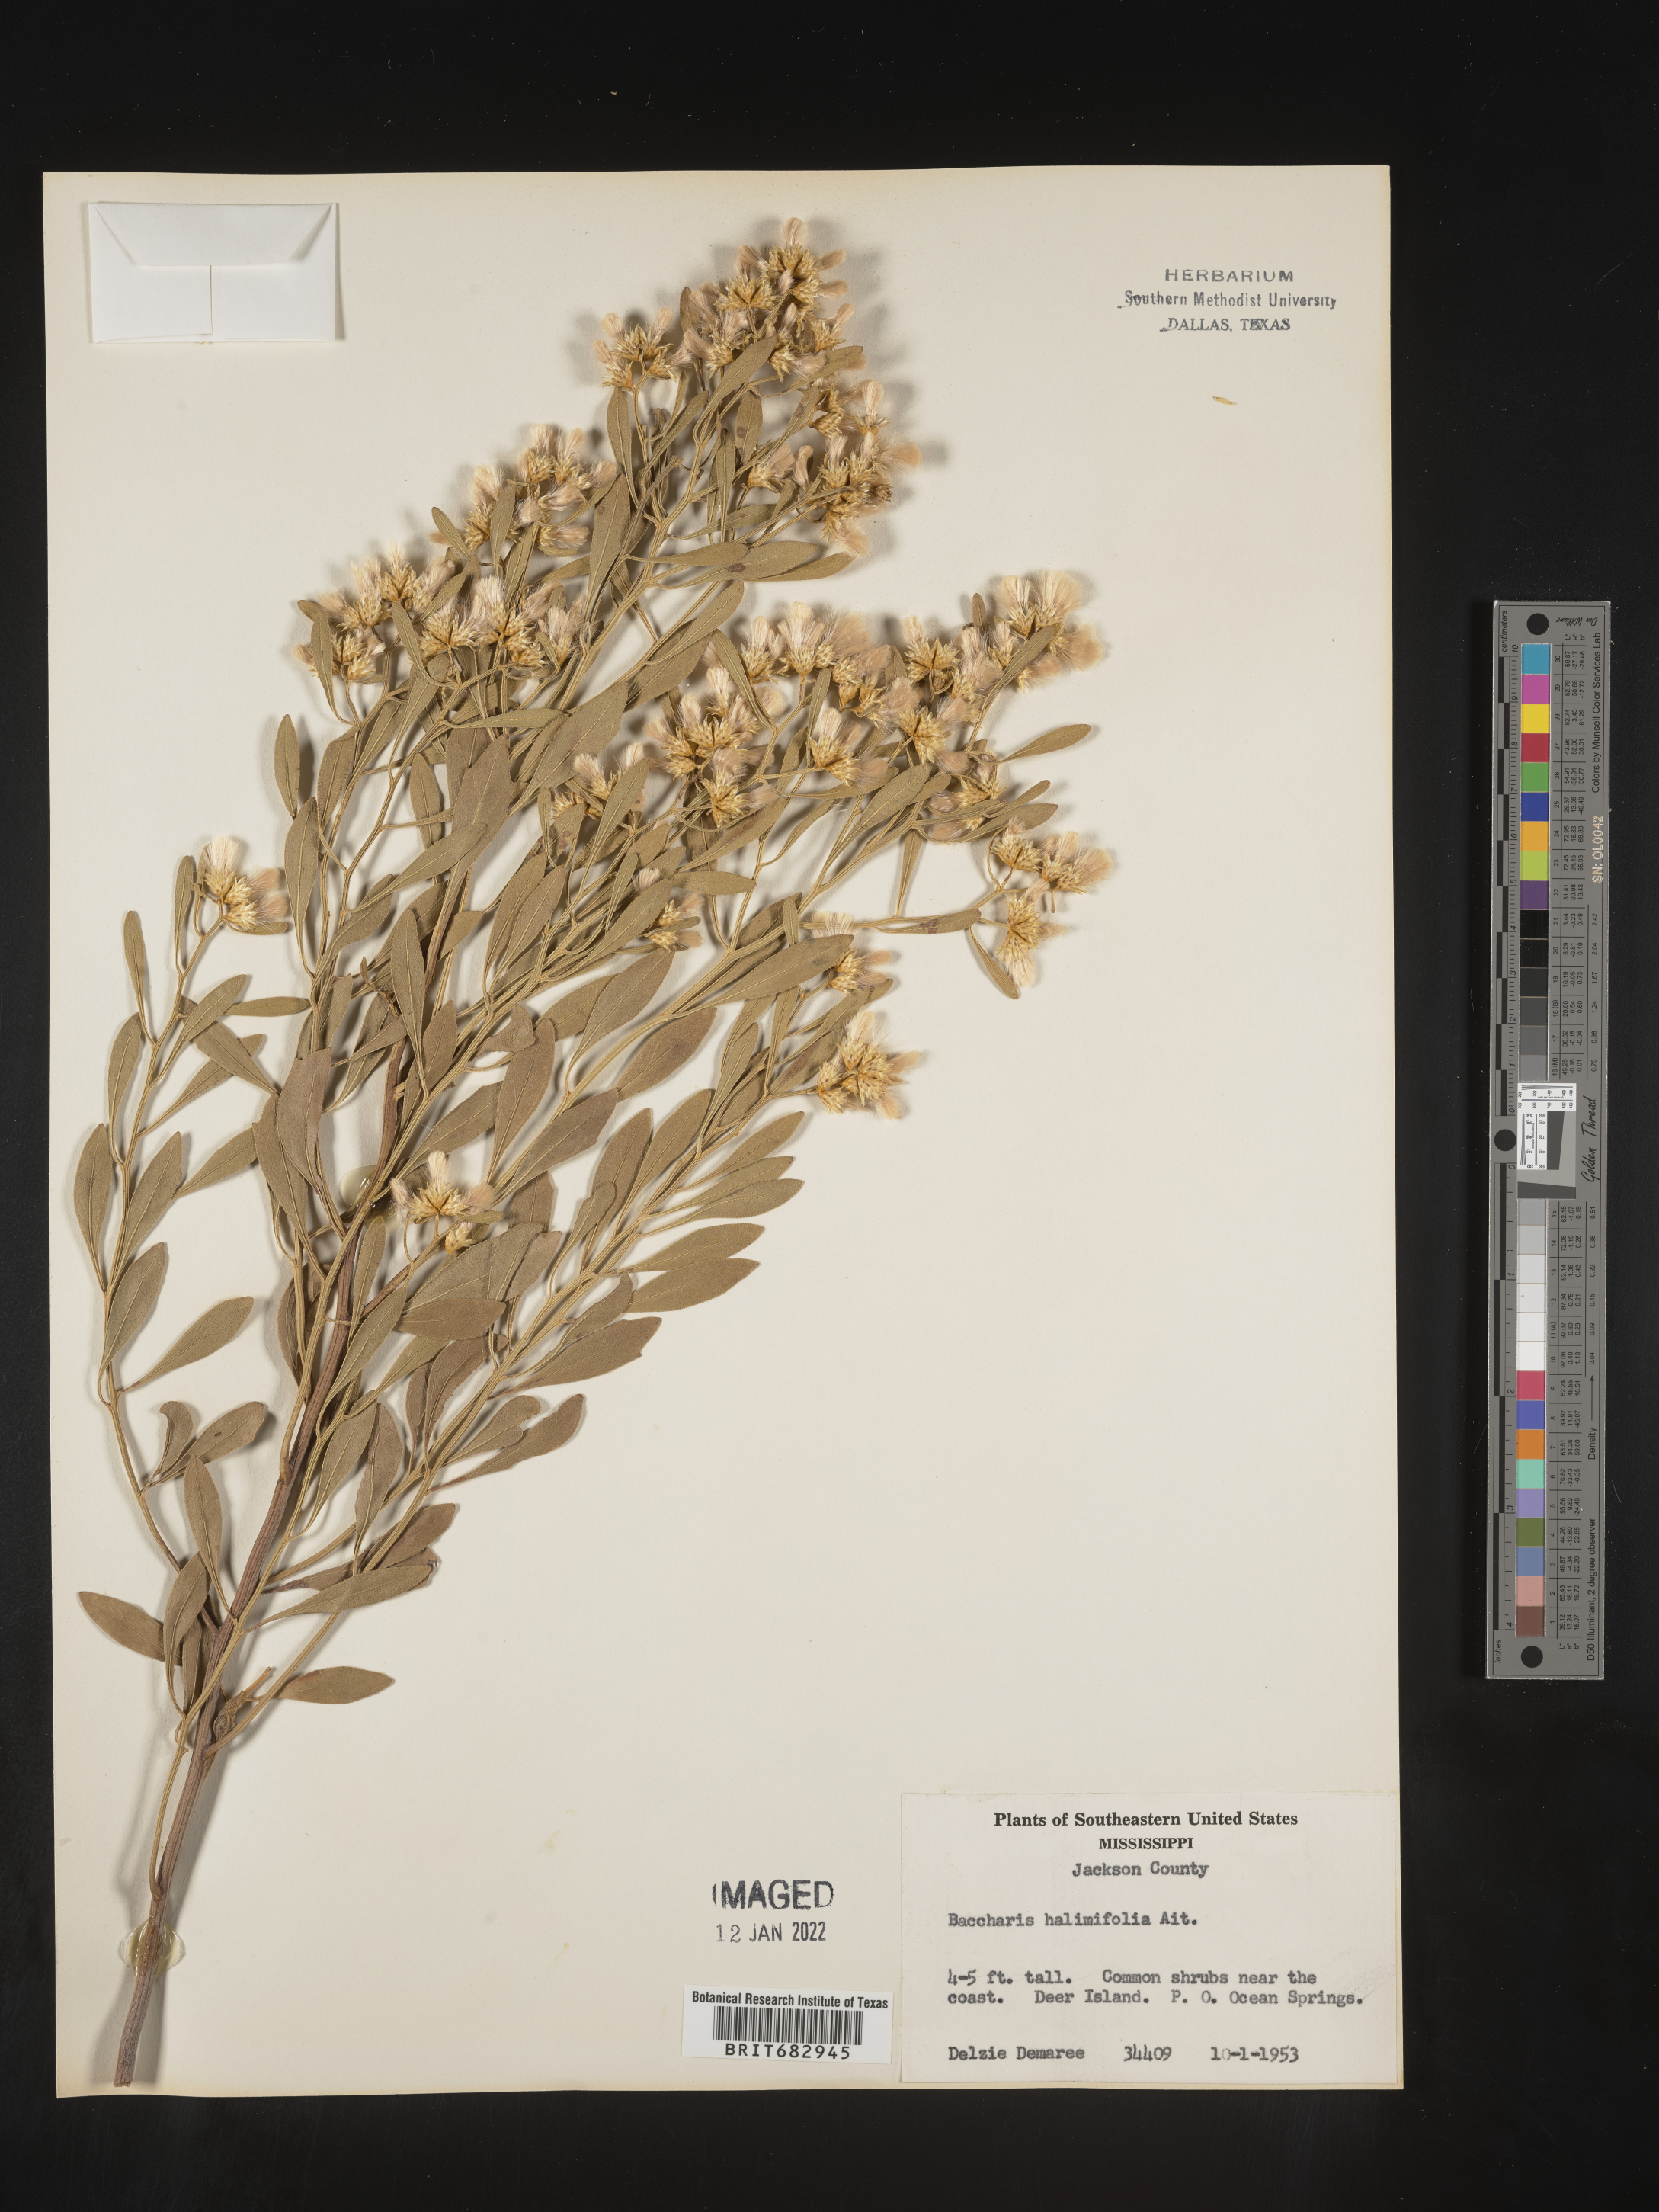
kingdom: Plantae
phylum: Tracheophyta
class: Magnoliopsida
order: Asterales
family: Asteraceae
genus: Nidorella
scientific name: Nidorella ivifolia
